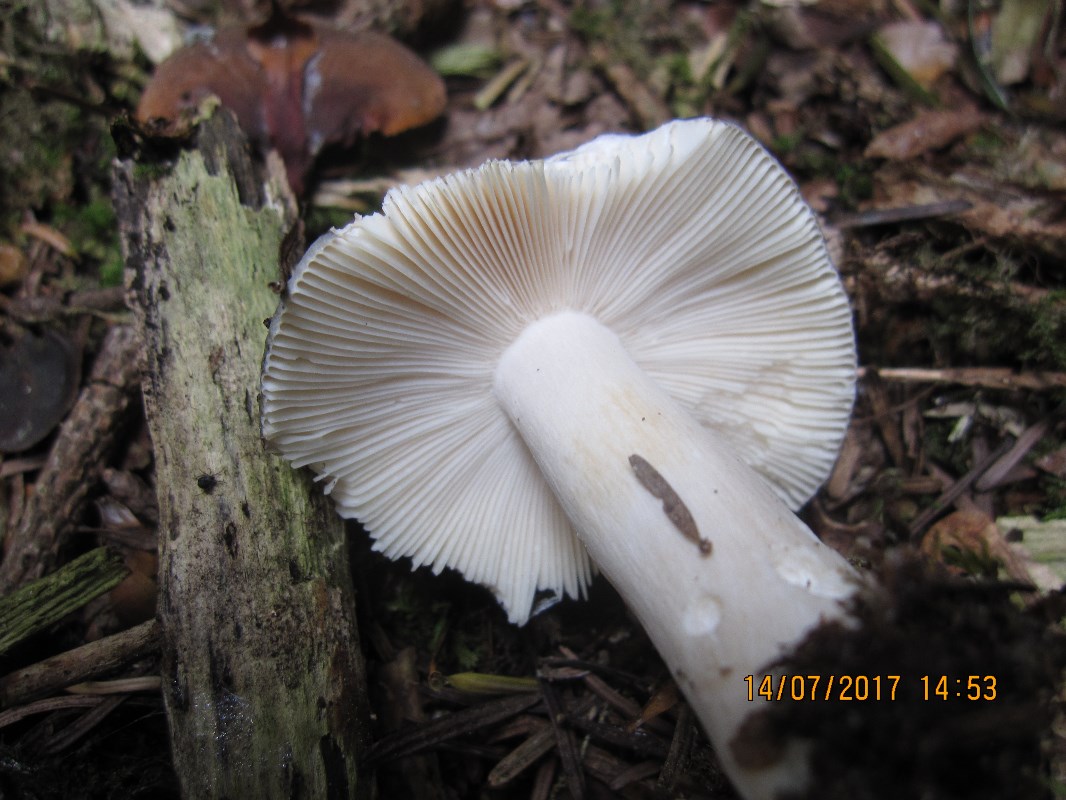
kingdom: Fungi
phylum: Basidiomycota
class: Agaricomycetes
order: Russulales
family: Russulaceae
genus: Russula
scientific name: Russula parazurea
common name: blågrå skørhat
